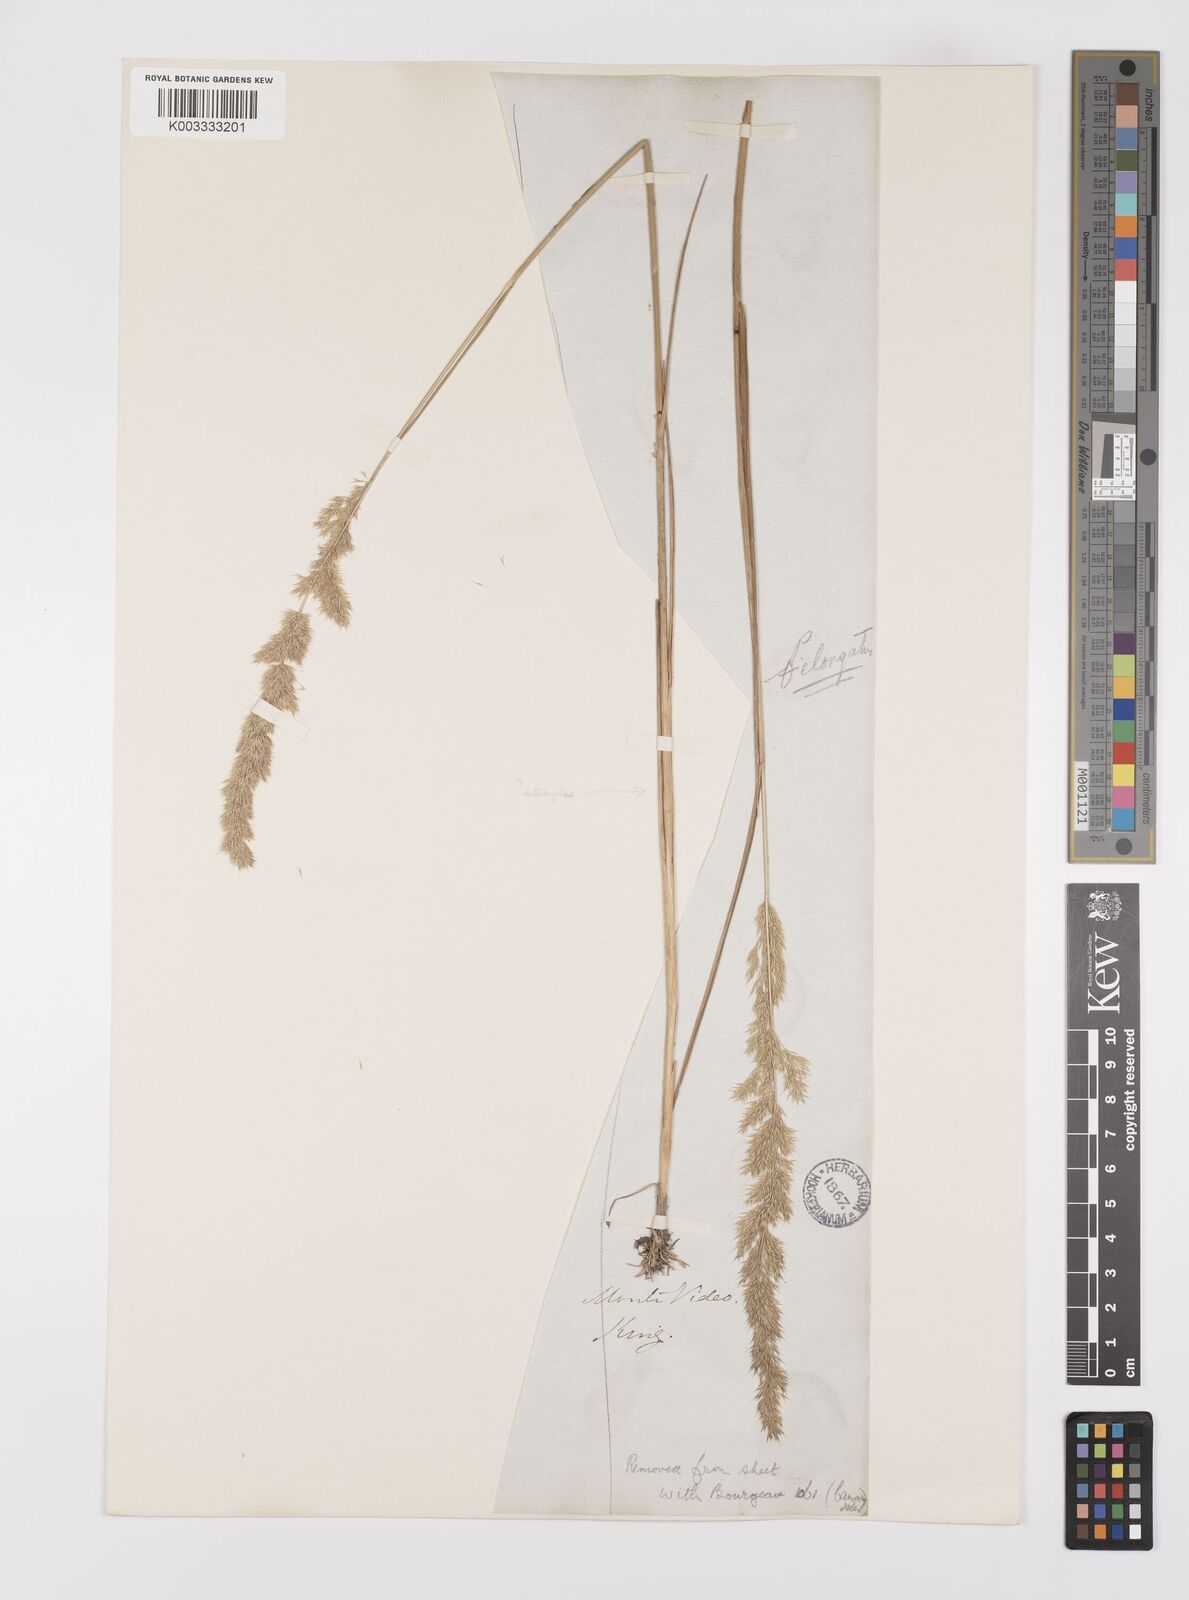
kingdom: Plantae
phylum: Tracheophyta
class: Liliopsida
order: Poales
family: Poaceae
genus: Polypogon
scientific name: Polypogon elongatus
